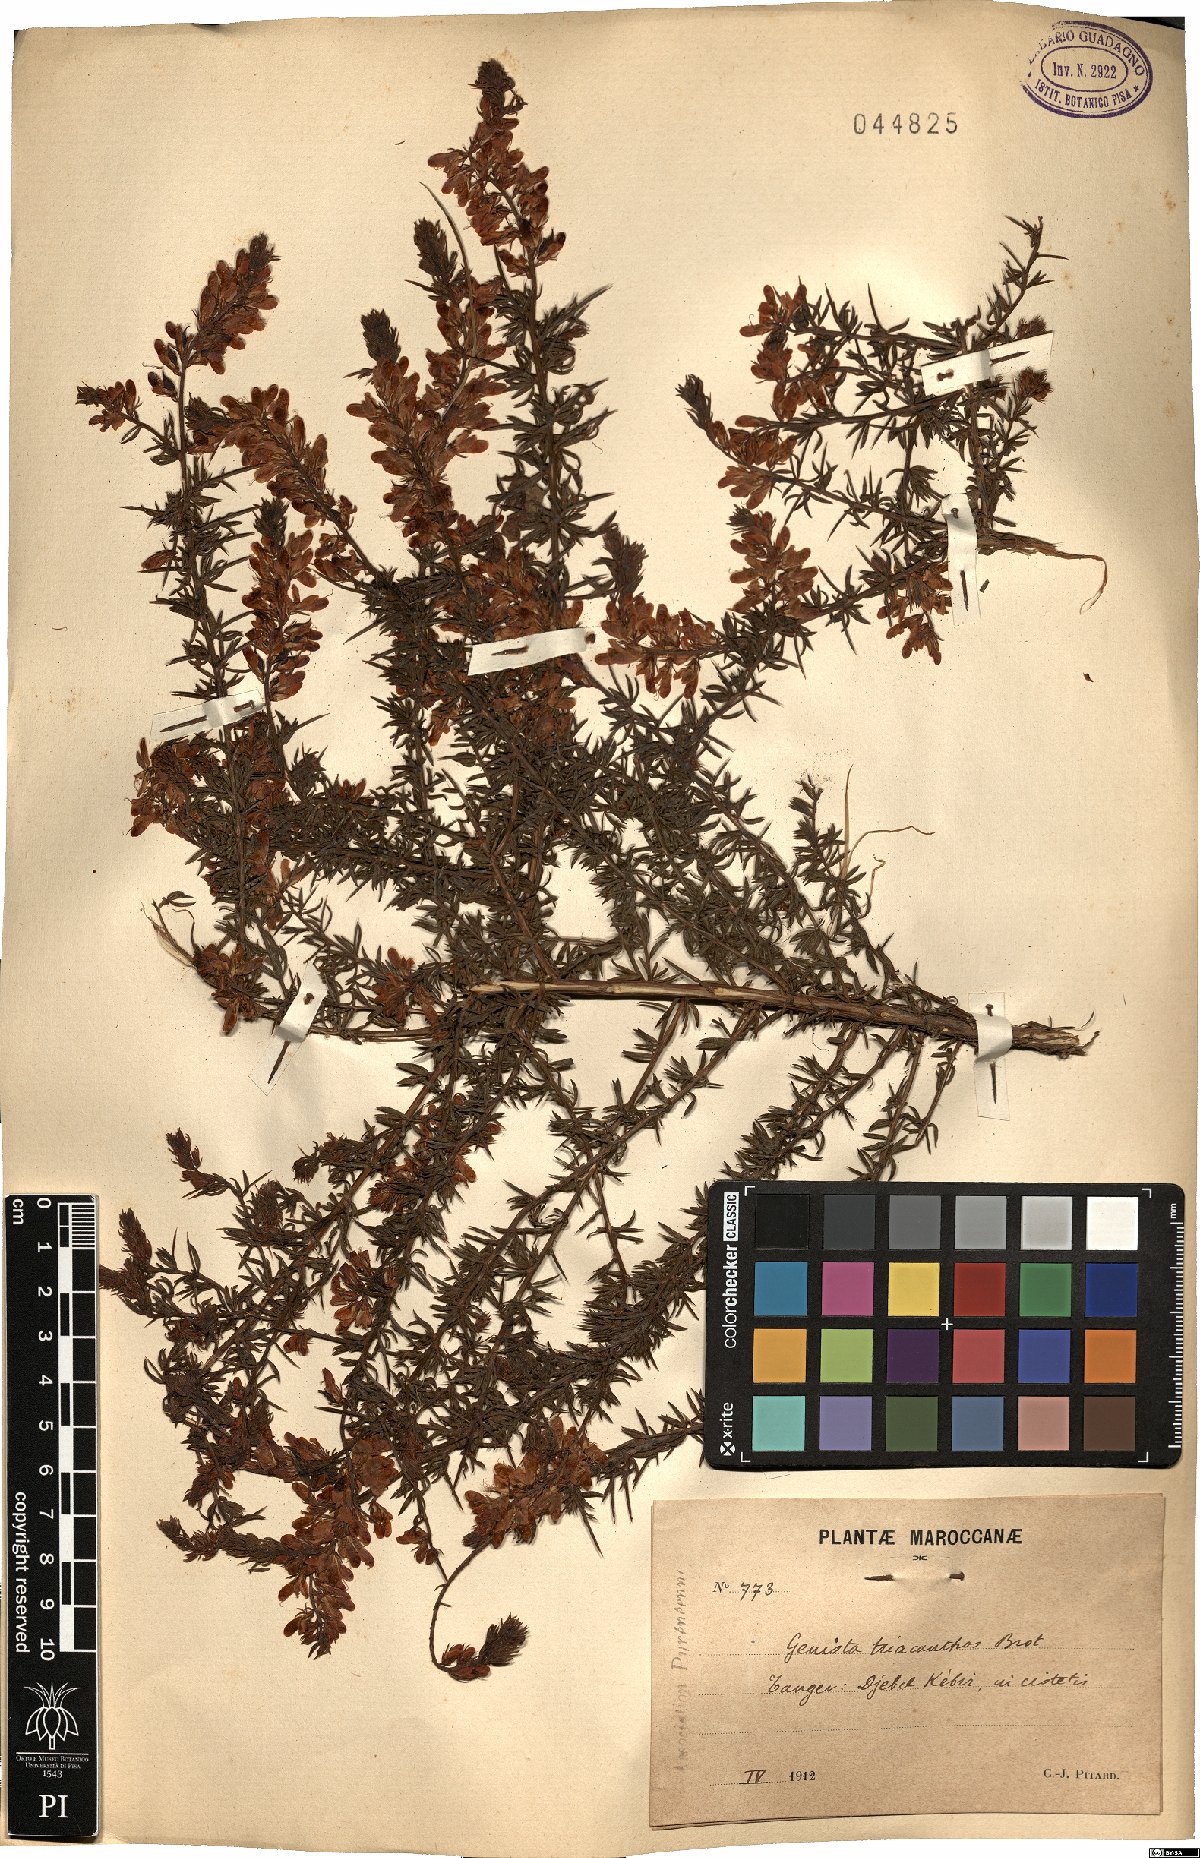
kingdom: Plantae
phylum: Tracheophyta
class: Magnoliopsida
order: Fabales
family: Fabaceae
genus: Genista
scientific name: Genista triacanthos
